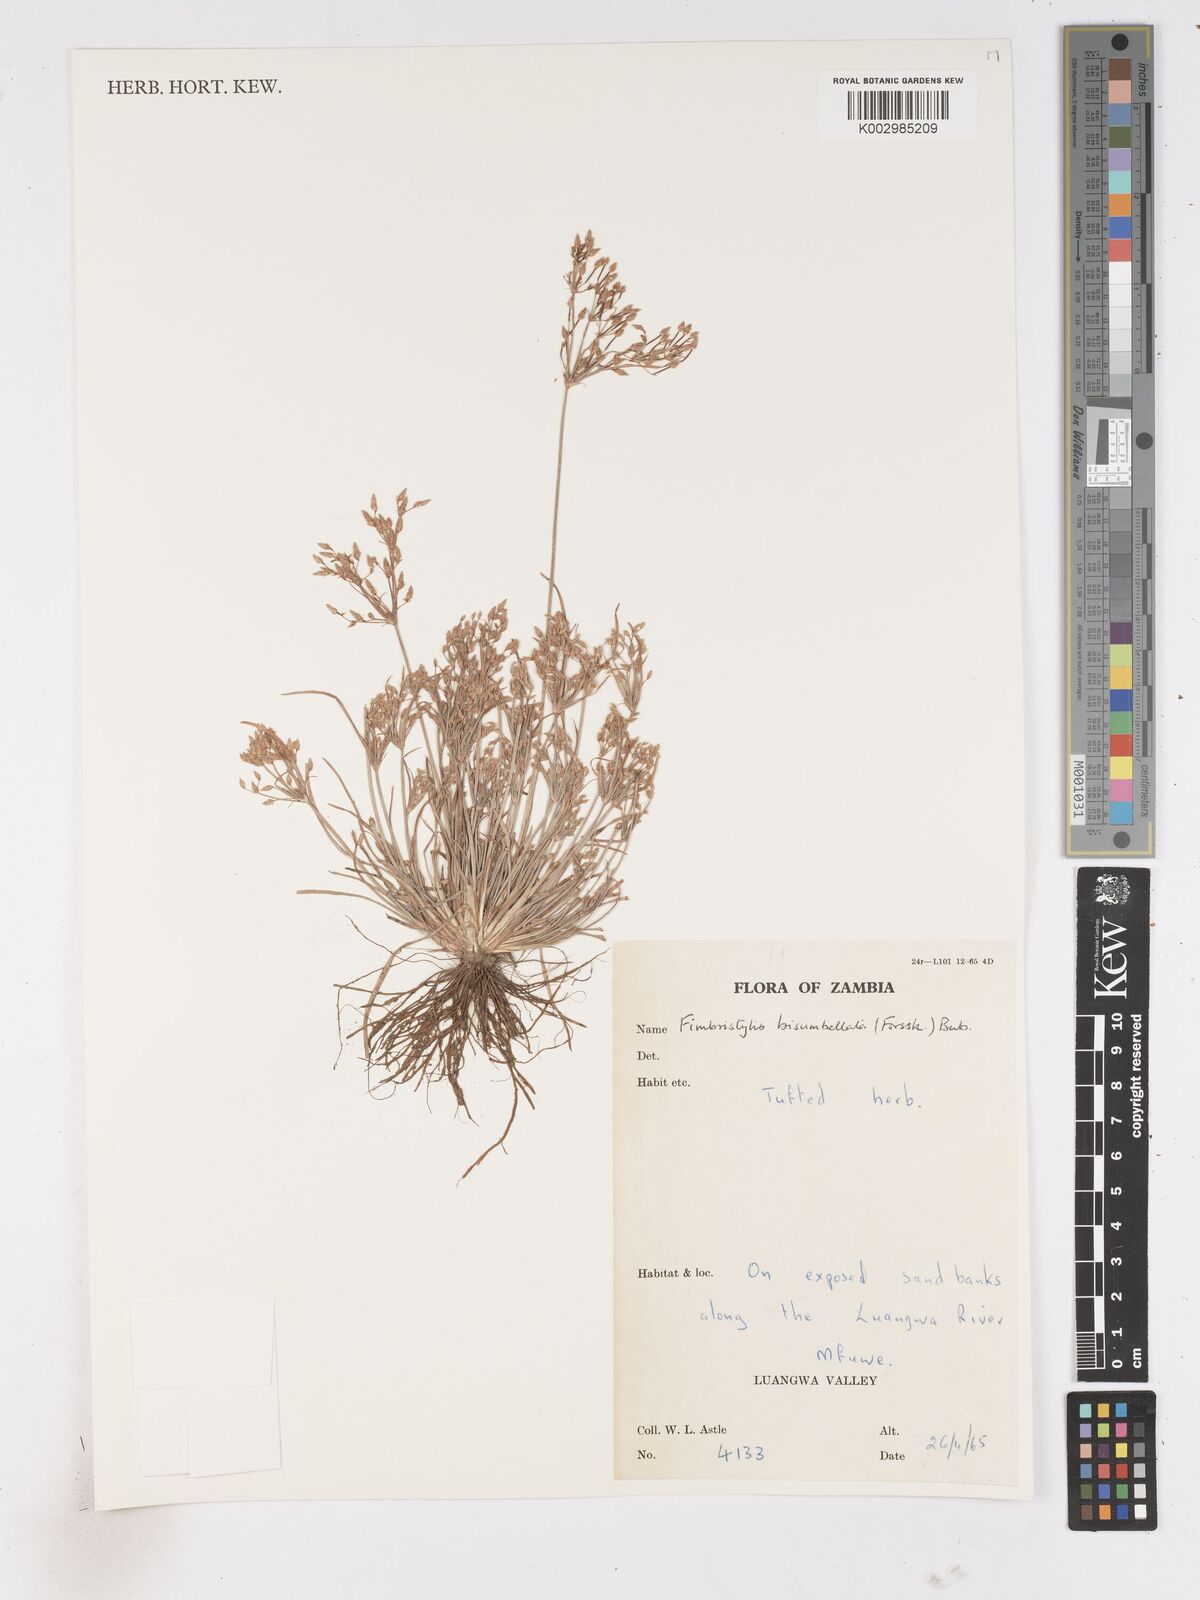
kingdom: Plantae
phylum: Tracheophyta
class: Liliopsida
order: Poales
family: Cyperaceae
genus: Fimbristylis
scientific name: Fimbristylis bisumbellata
